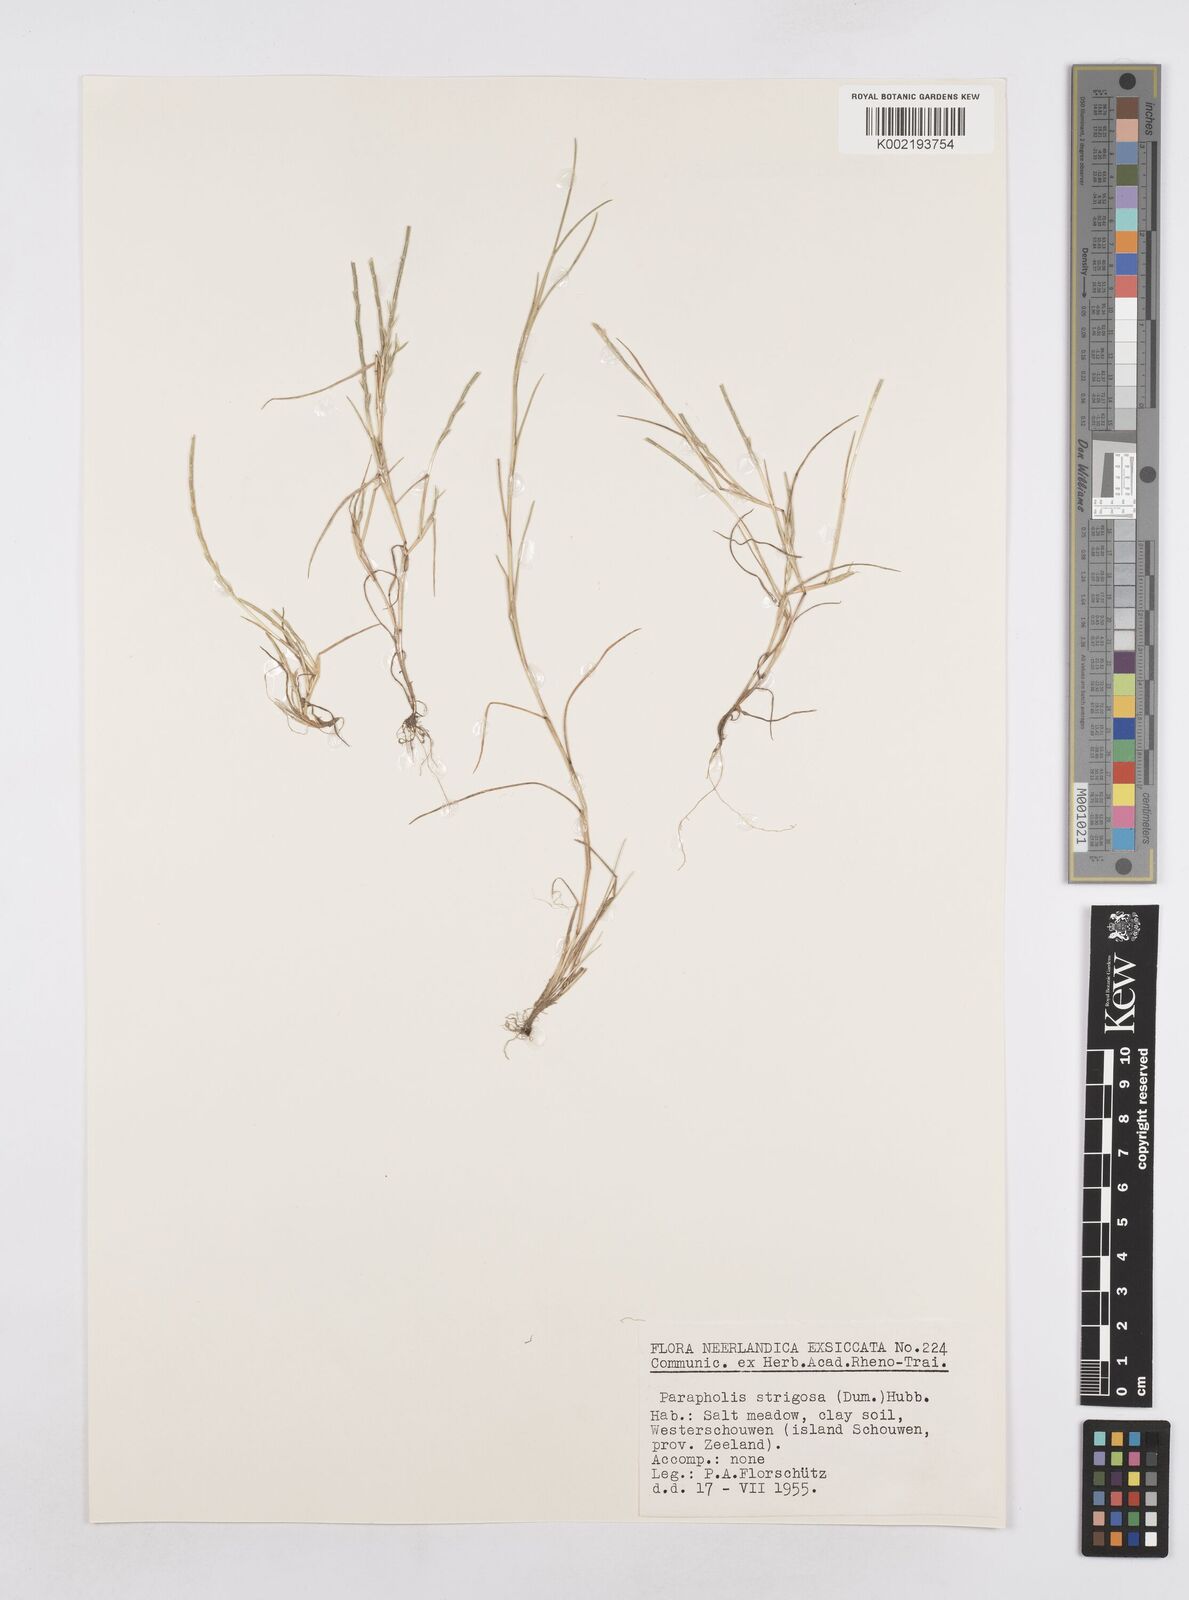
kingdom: Plantae
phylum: Tracheophyta
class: Liliopsida
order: Poales
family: Poaceae
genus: Parapholis
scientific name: Parapholis strigosa
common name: Hard-grass
